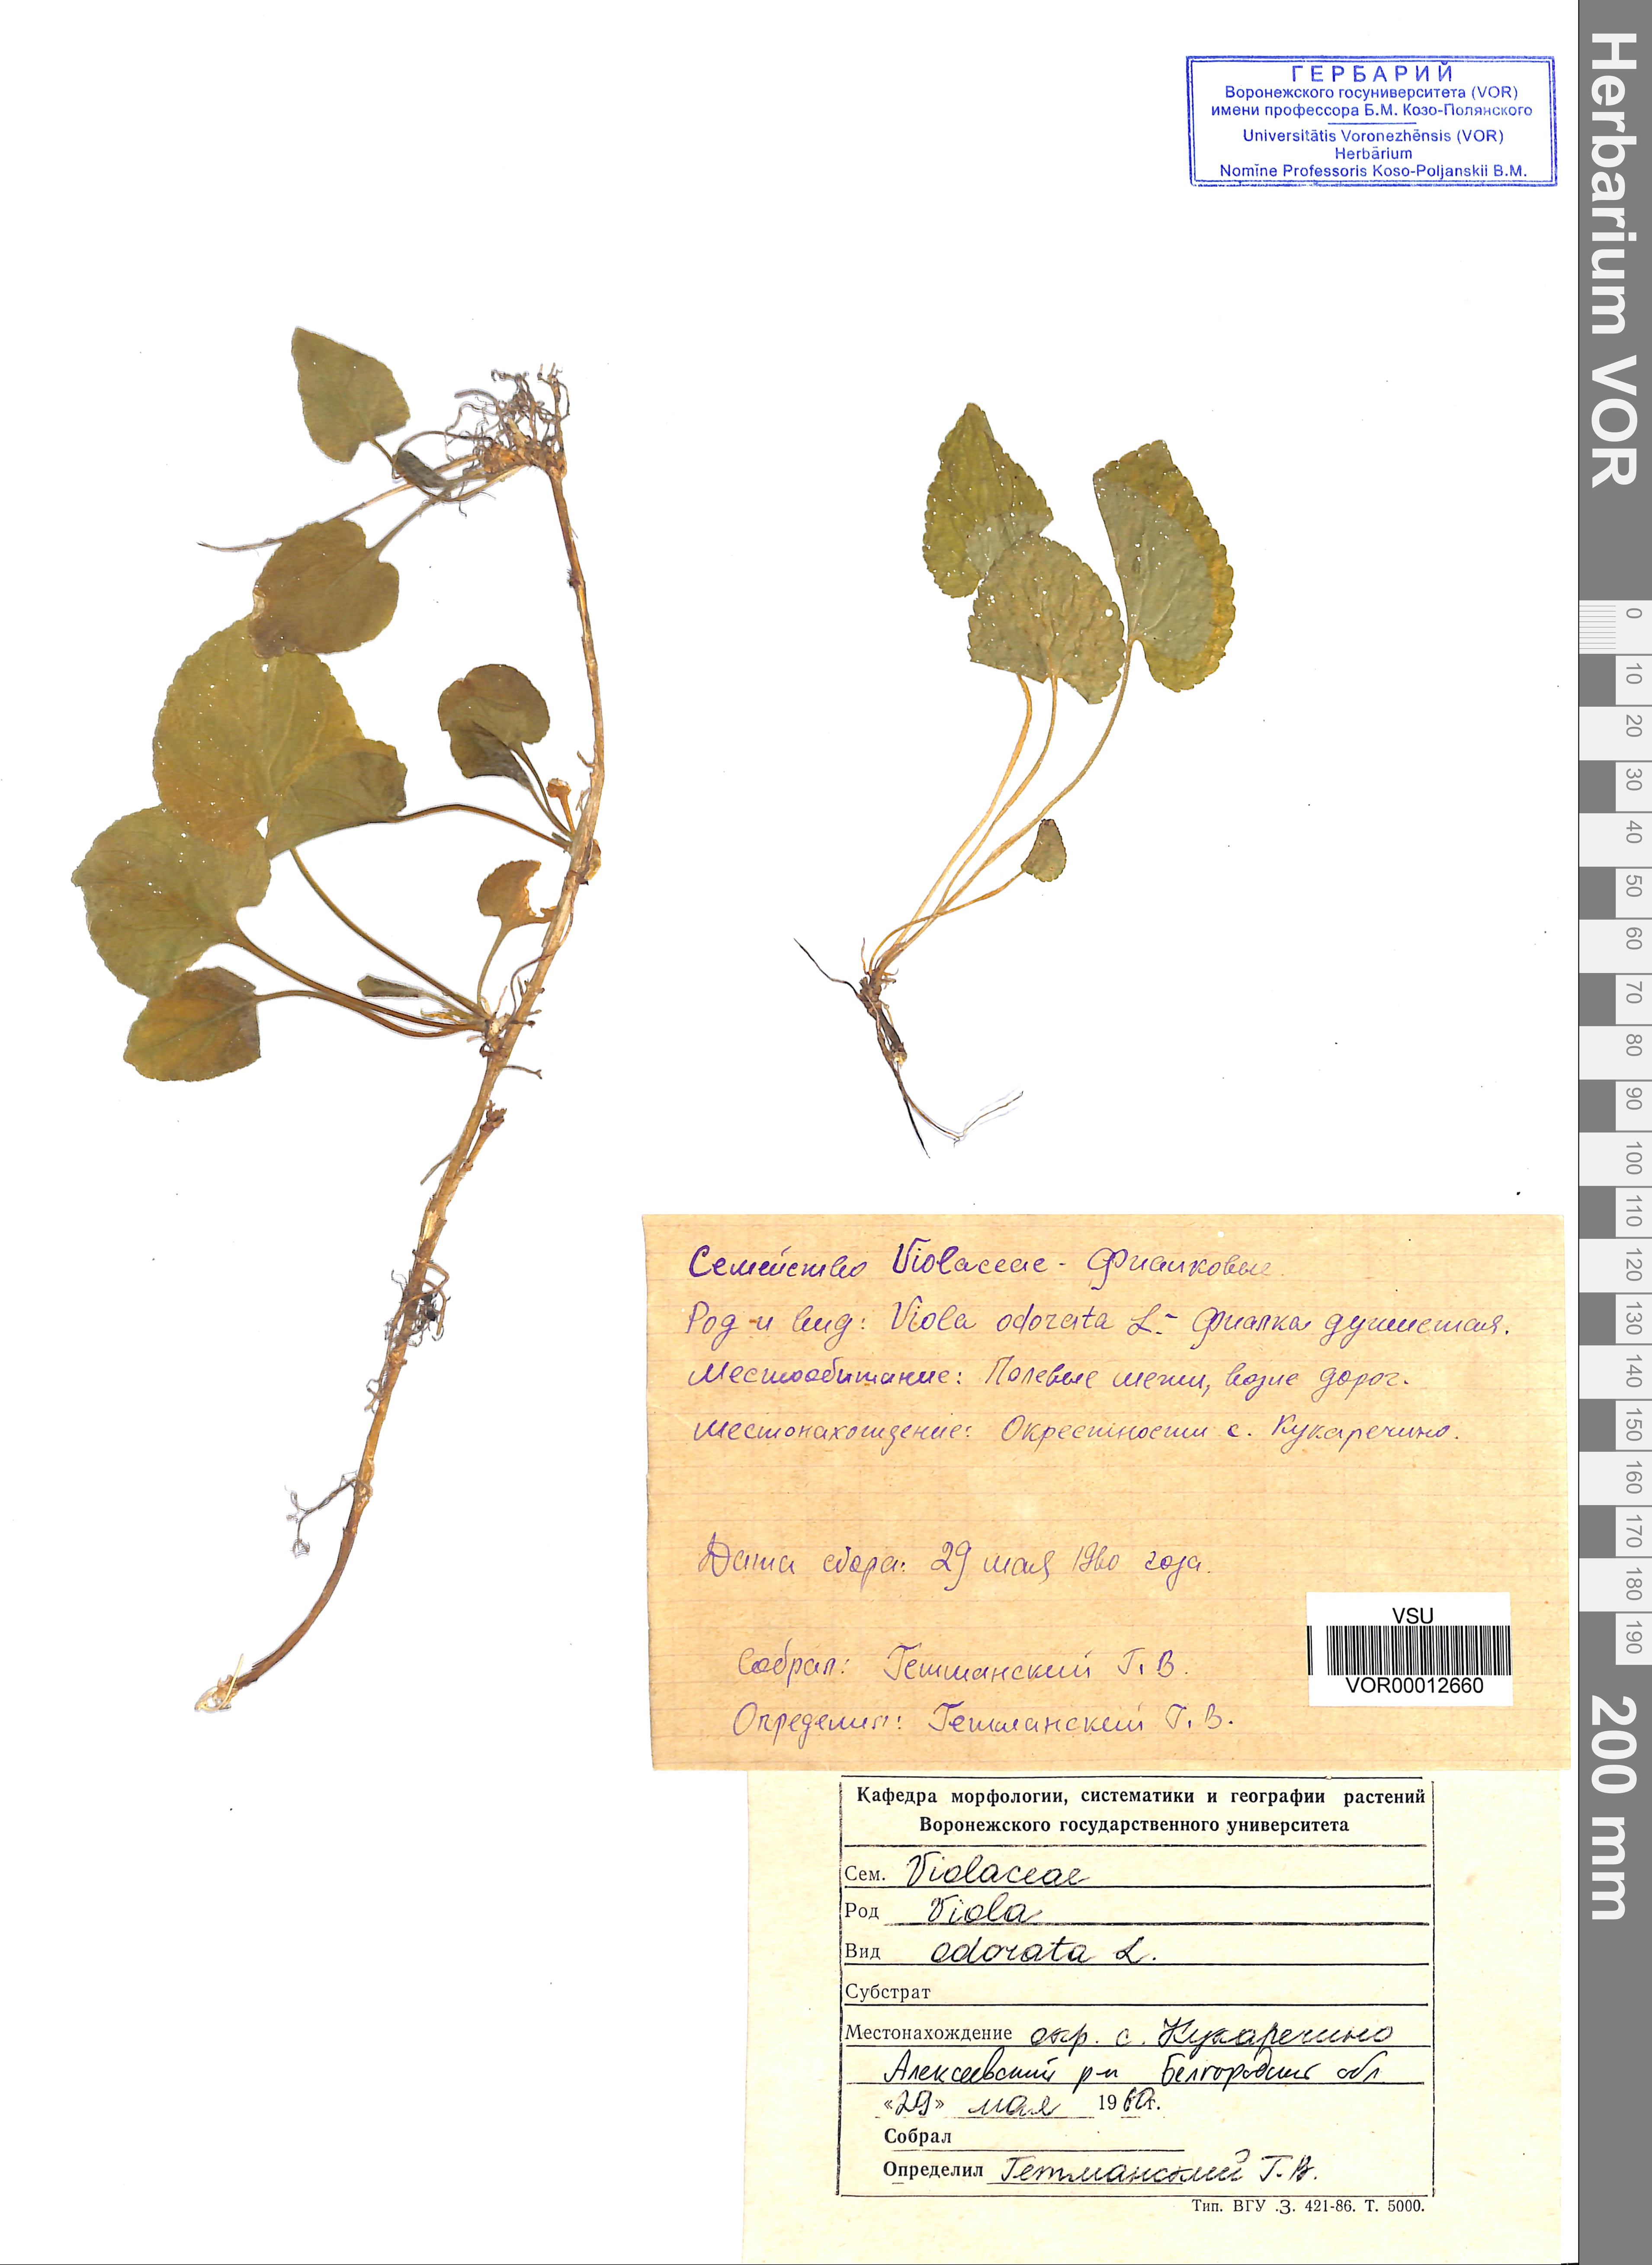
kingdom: Plantae
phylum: Tracheophyta
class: Magnoliopsida
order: Malpighiales
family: Violaceae
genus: Viola
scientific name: Viola odorata
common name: Sweet violet
